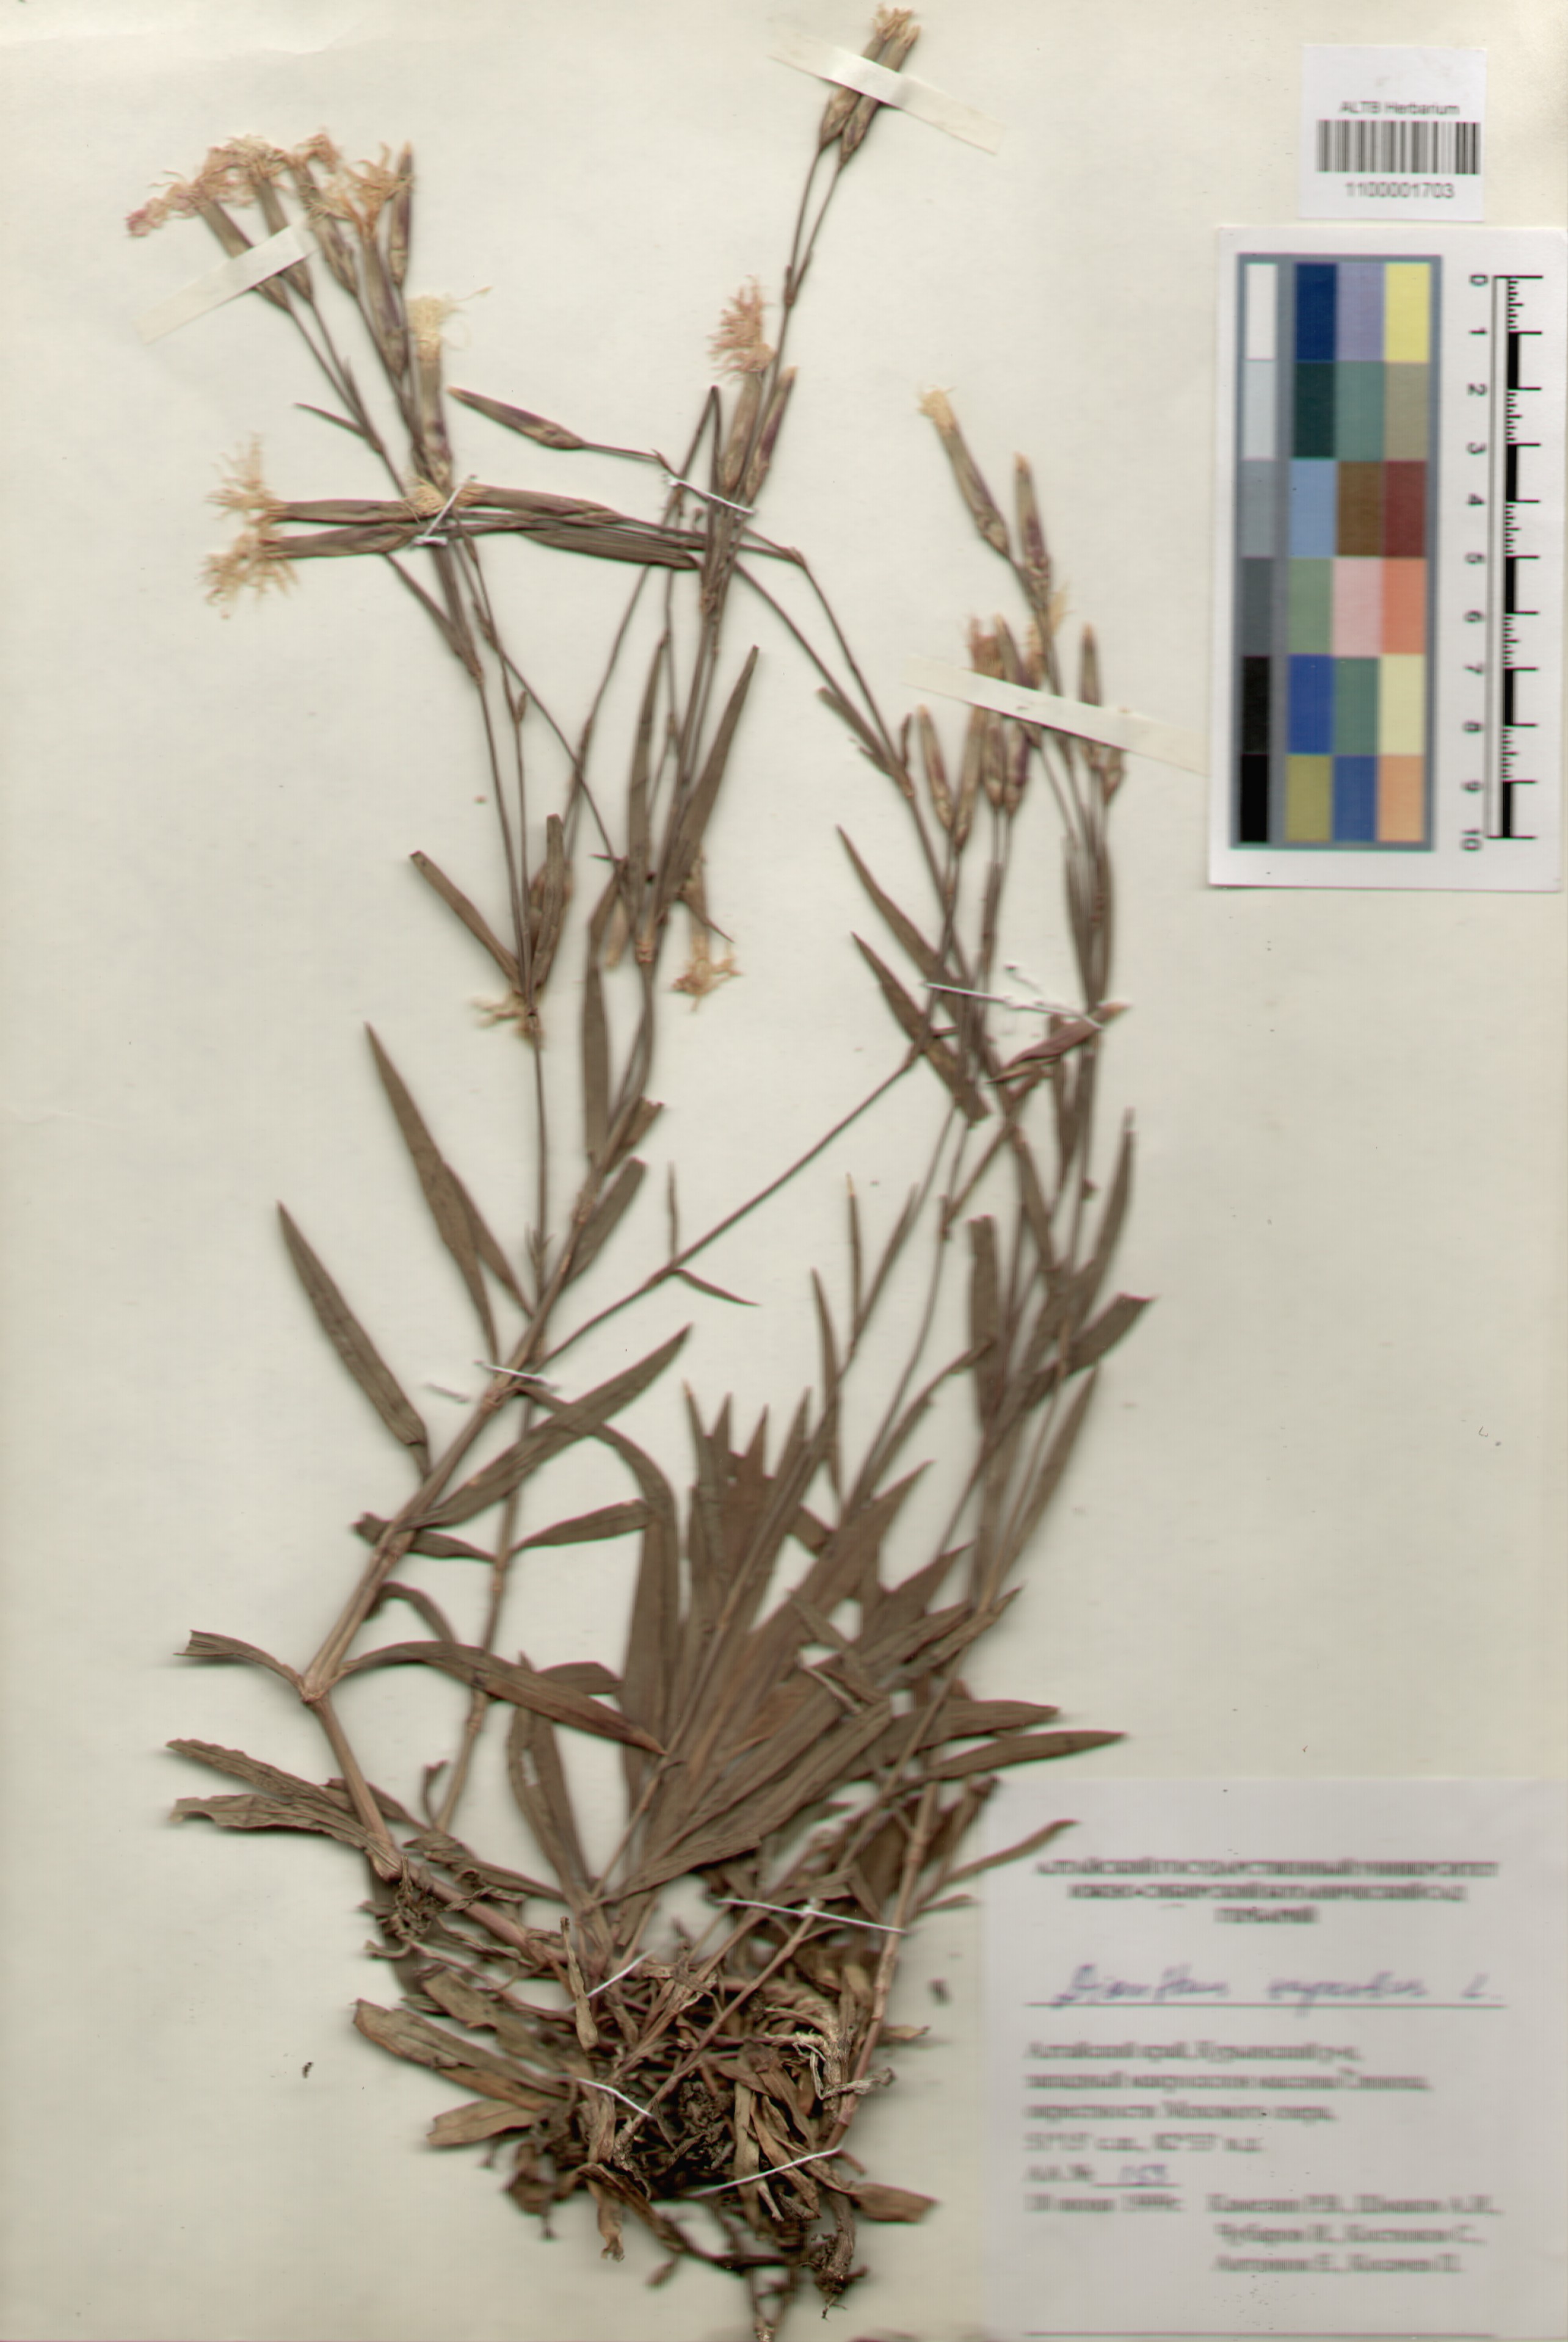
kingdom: Plantae
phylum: Tracheophyta
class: Magnoliopsida
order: Caryophyllales
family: Caryophyllaceae
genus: Dianthus
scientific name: Dianthus superbus
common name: Fringed pink
